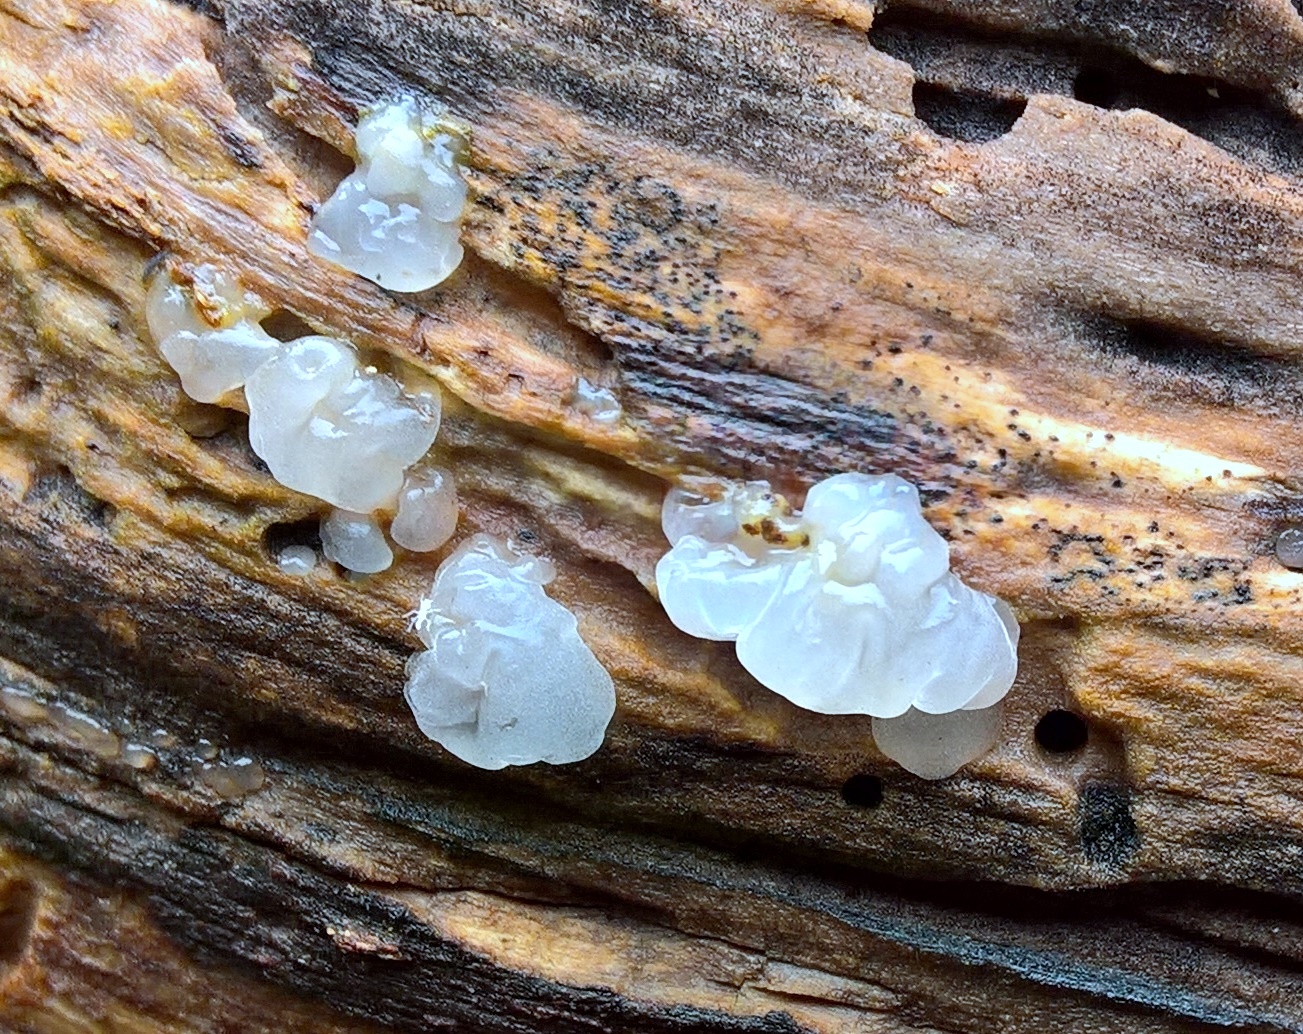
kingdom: Fungi
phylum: Basidiomycota
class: Agaricomycetes
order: Auriculariales
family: Hyaloriaceae
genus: Myxarium
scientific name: Myxarium
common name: bævretop
